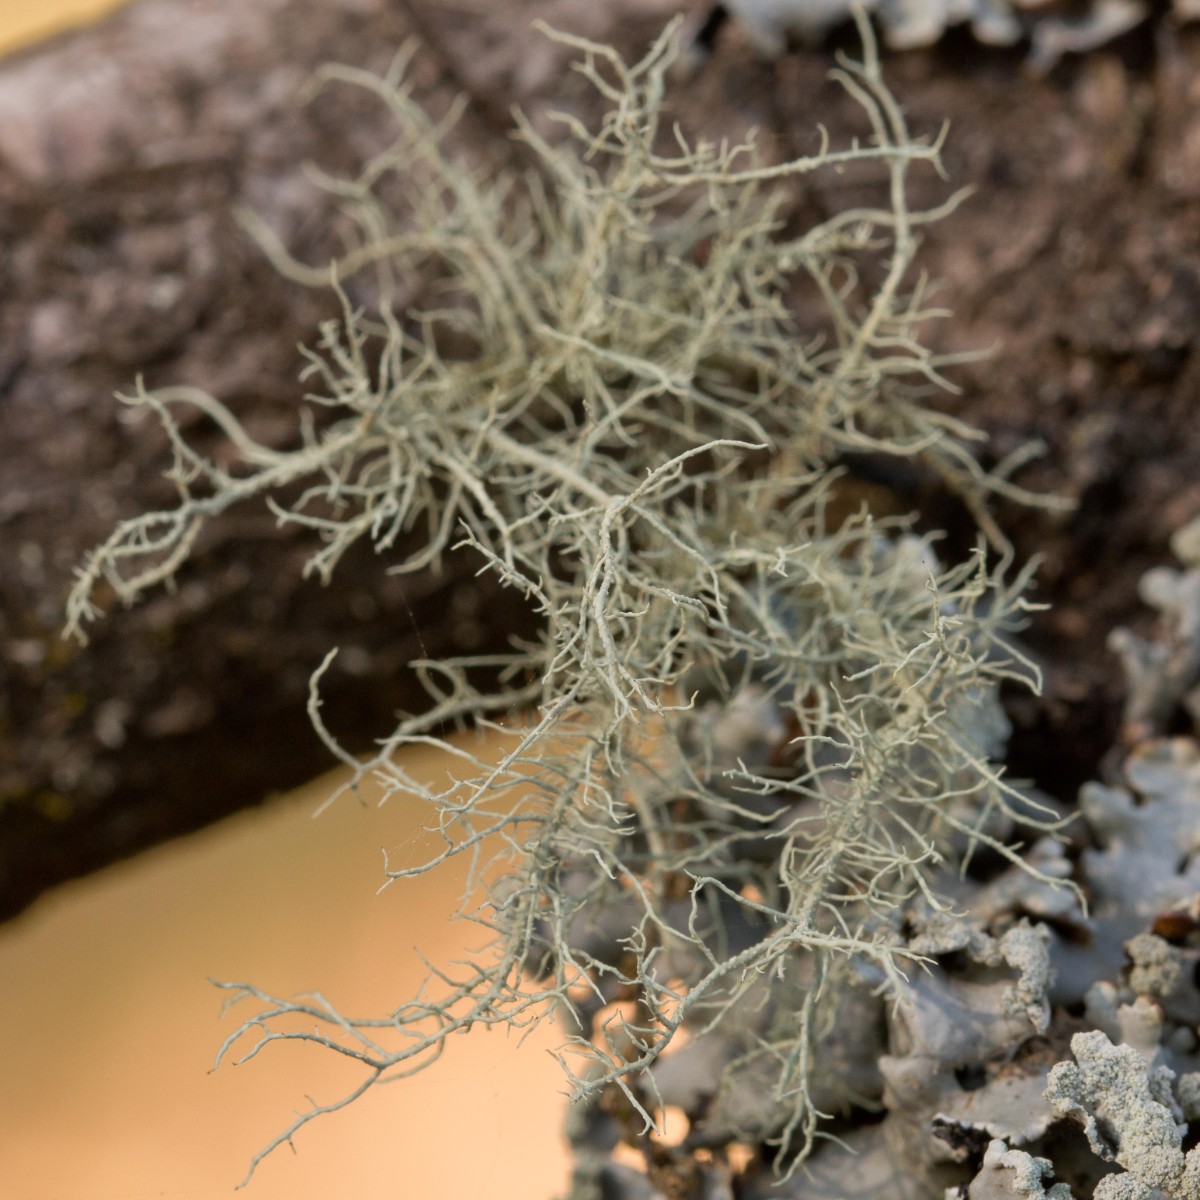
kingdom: Fungi
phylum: Ascomycota
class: Lecanoromycetes
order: Lecanorales
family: Parmeliaceae
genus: Usnea
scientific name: Usnea subfloridana
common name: busket skæglav
